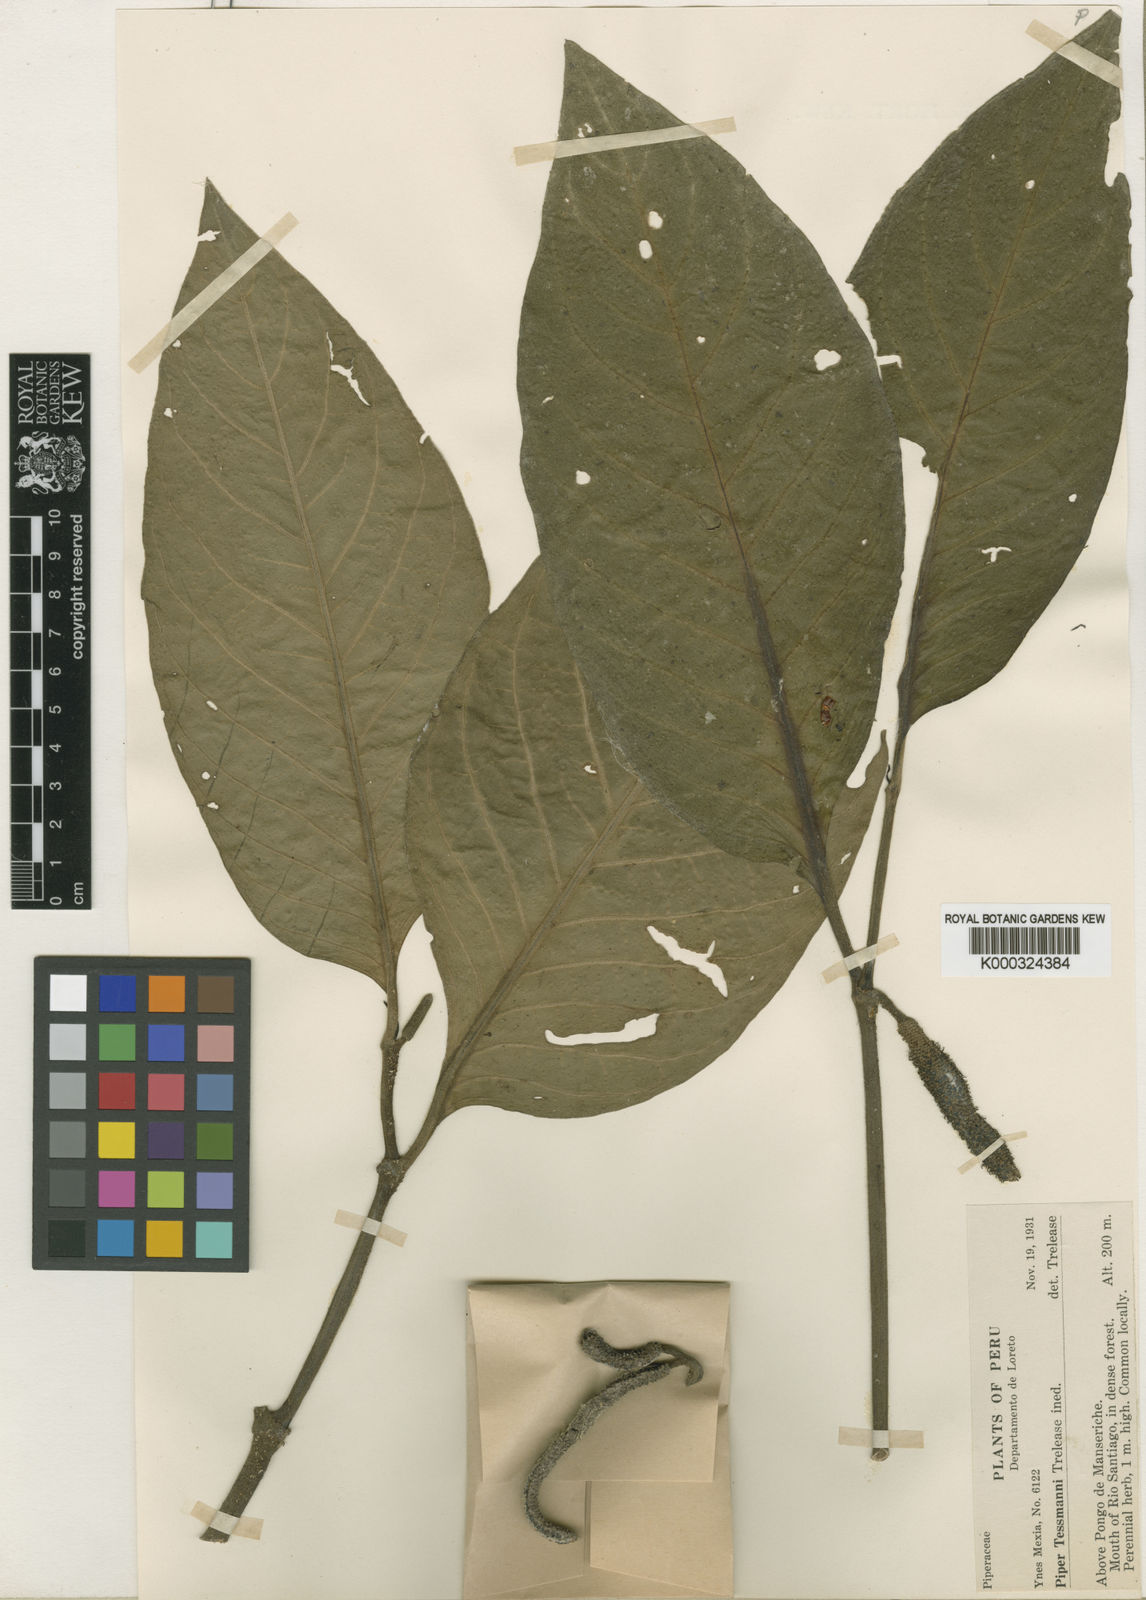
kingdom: Plantae
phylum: Tracheophyta
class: Magnoliopsida
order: Piperales
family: Piperaceae
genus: Piper
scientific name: Piper tessmannii
